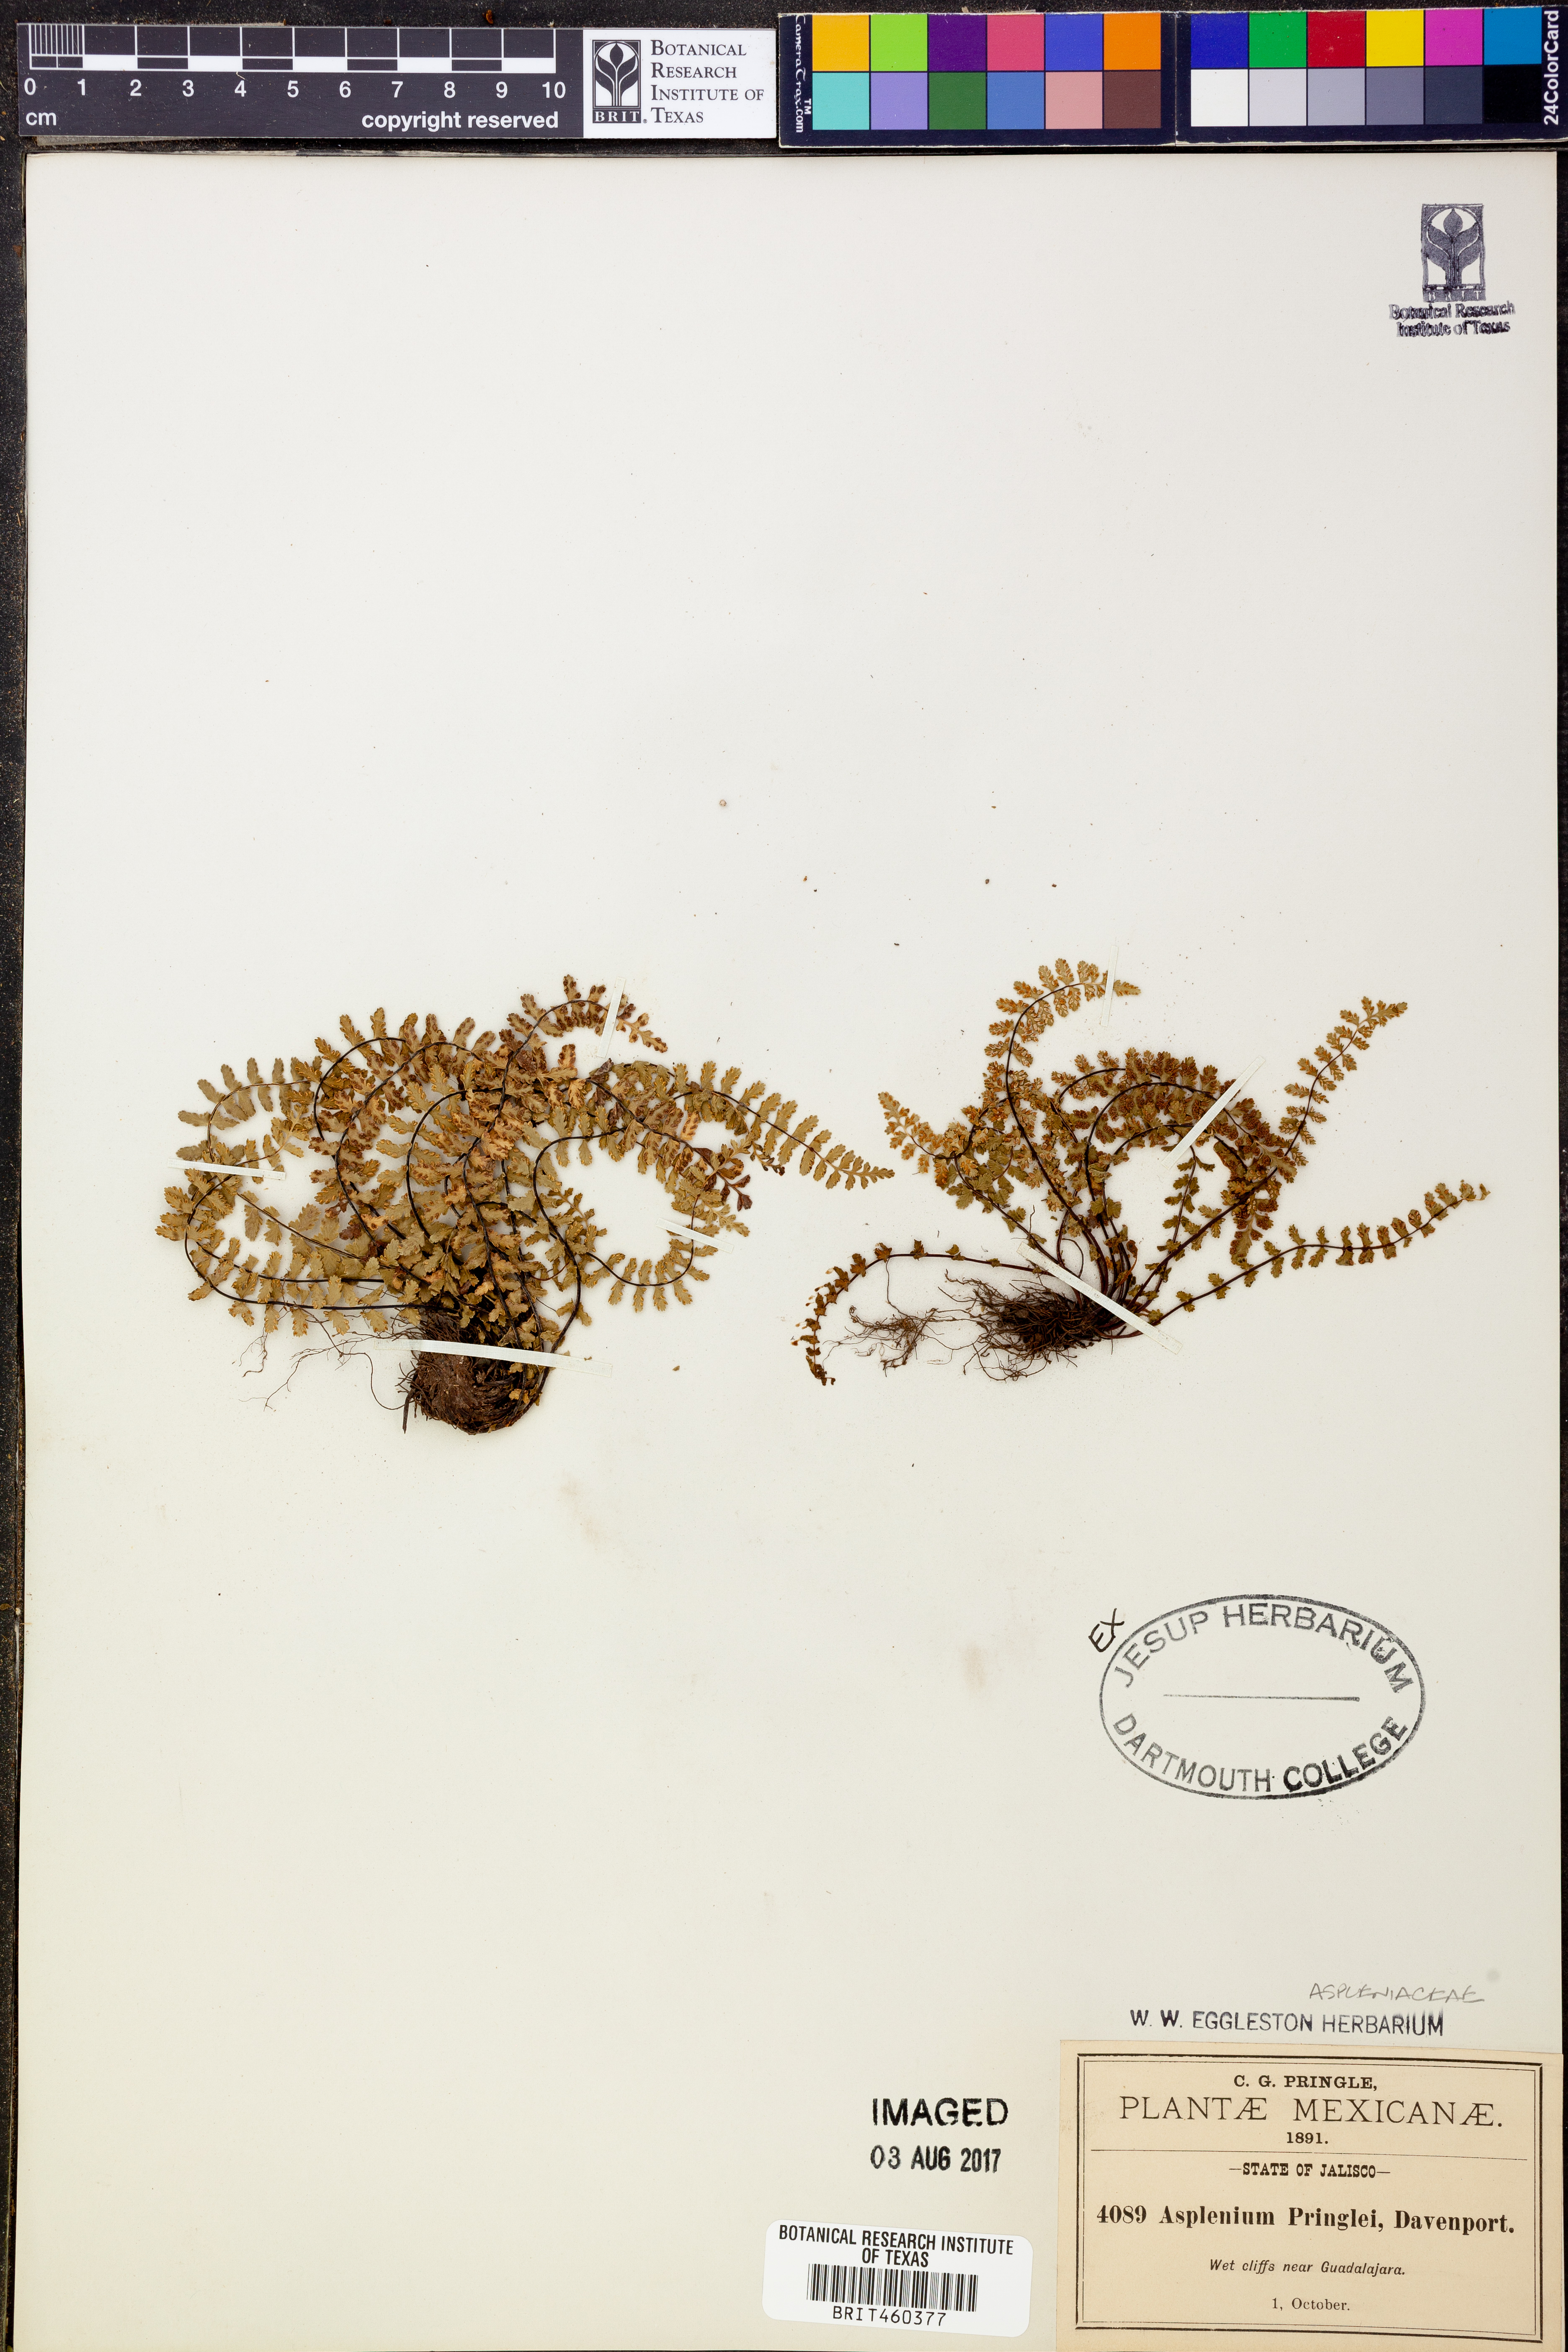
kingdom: Plantae
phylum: Tracheophyta
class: Polypodiopsida
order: Polypodiales
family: Aspleniaceae
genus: Asplenium
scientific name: Asplenium pringlei
